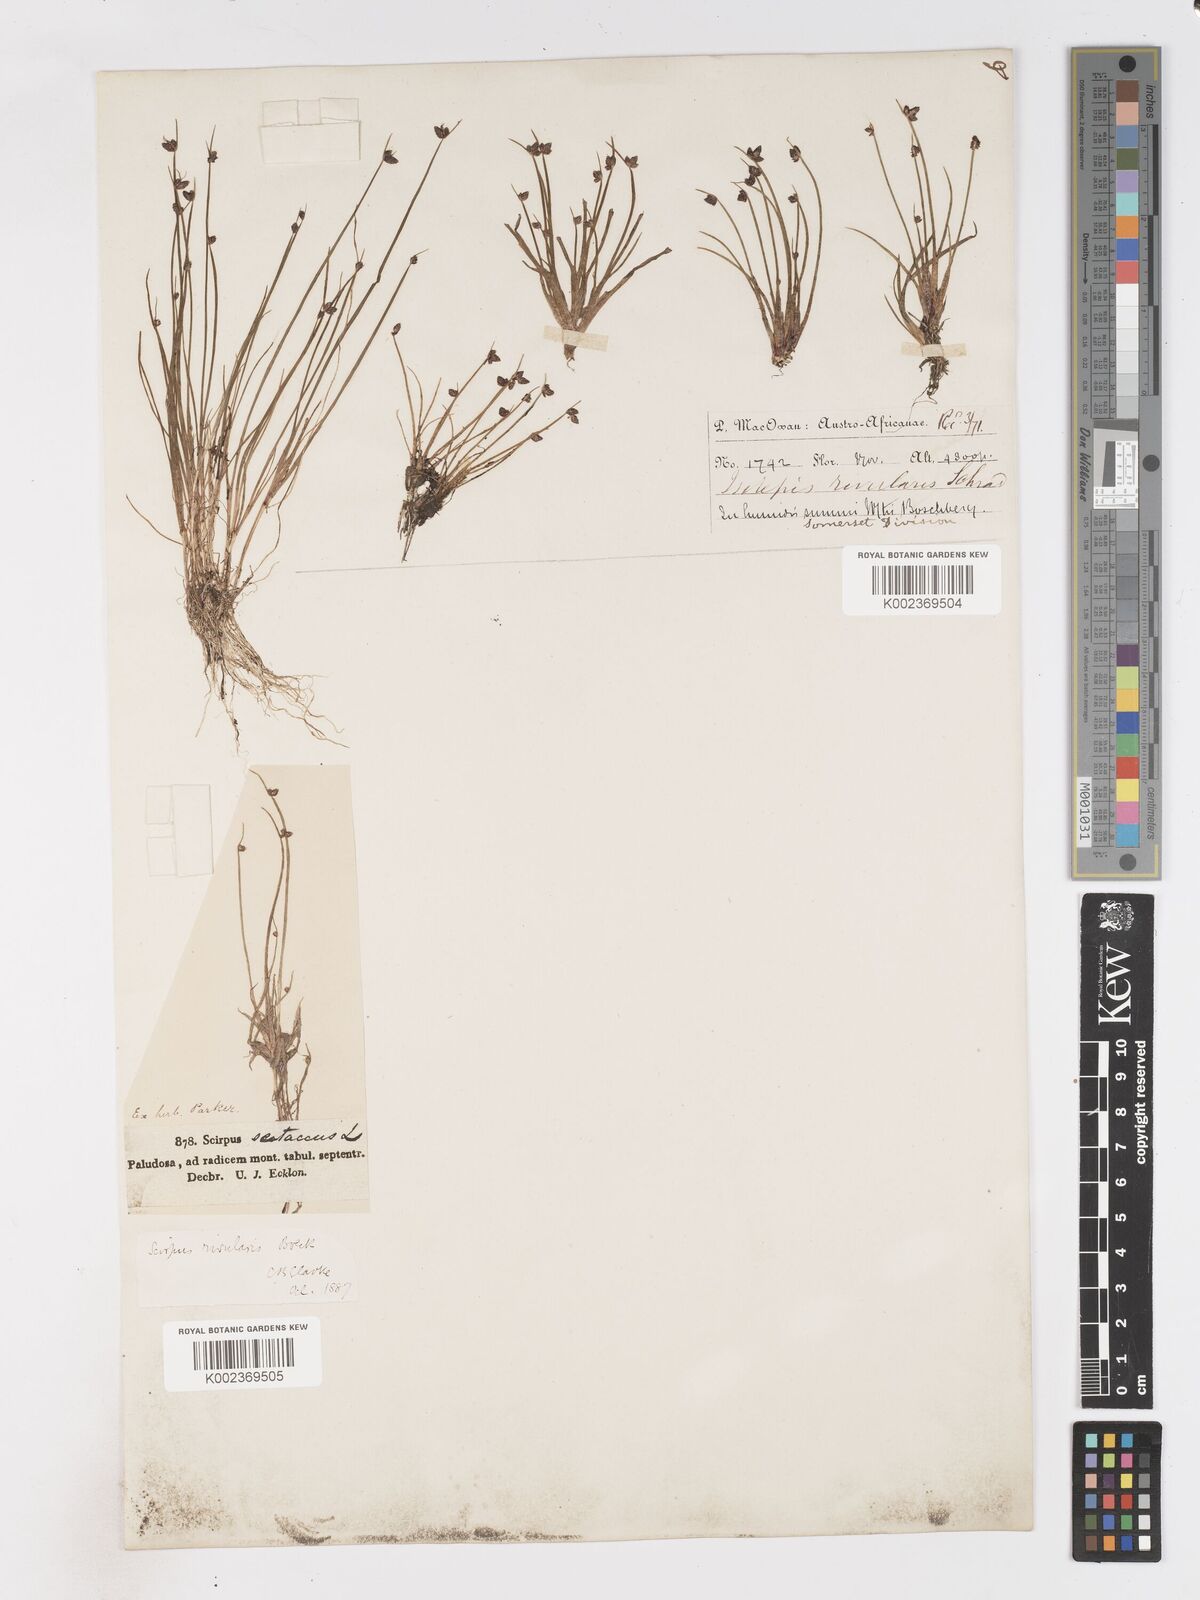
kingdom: Plantae
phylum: Tracheophyta
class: Liliopsida
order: Poales
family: Cyperaceae
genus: Isolepis
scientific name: Isolepis natans
